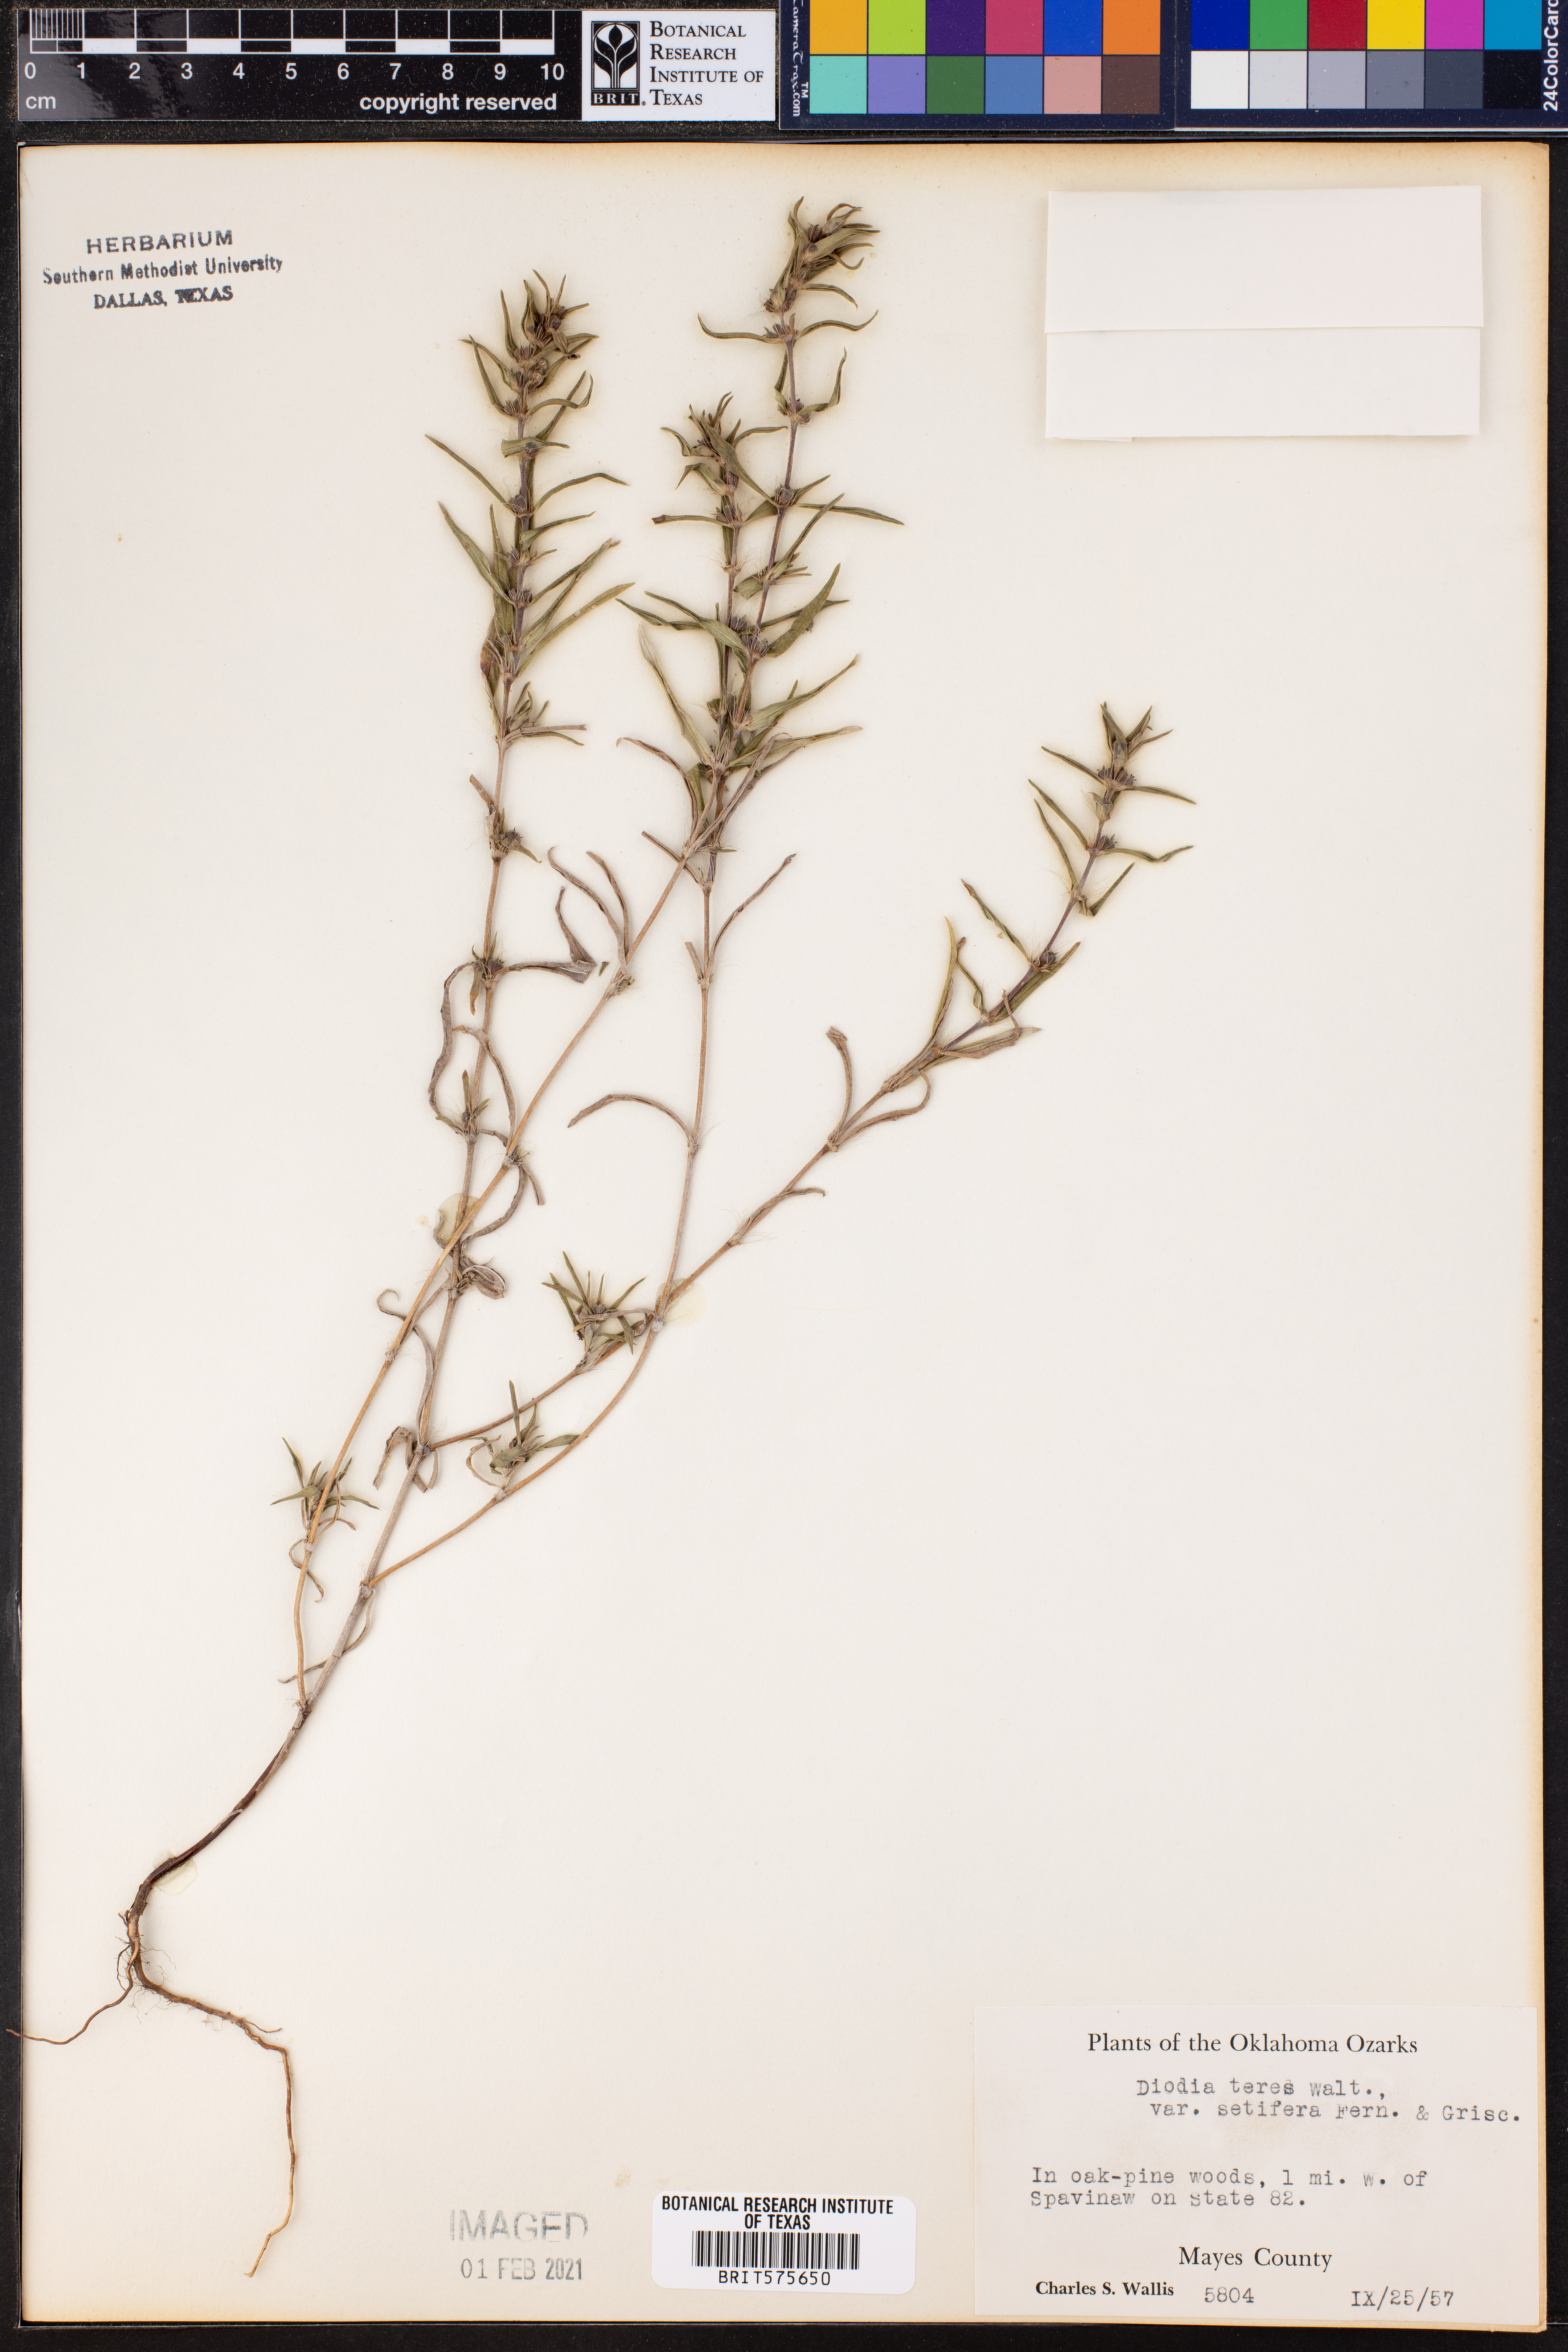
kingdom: Plantae
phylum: Tracheophyta
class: Magnoliopsida
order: Gentianales
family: Rubiaceae
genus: Hexasepalum
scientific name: Hexasepalum teres
